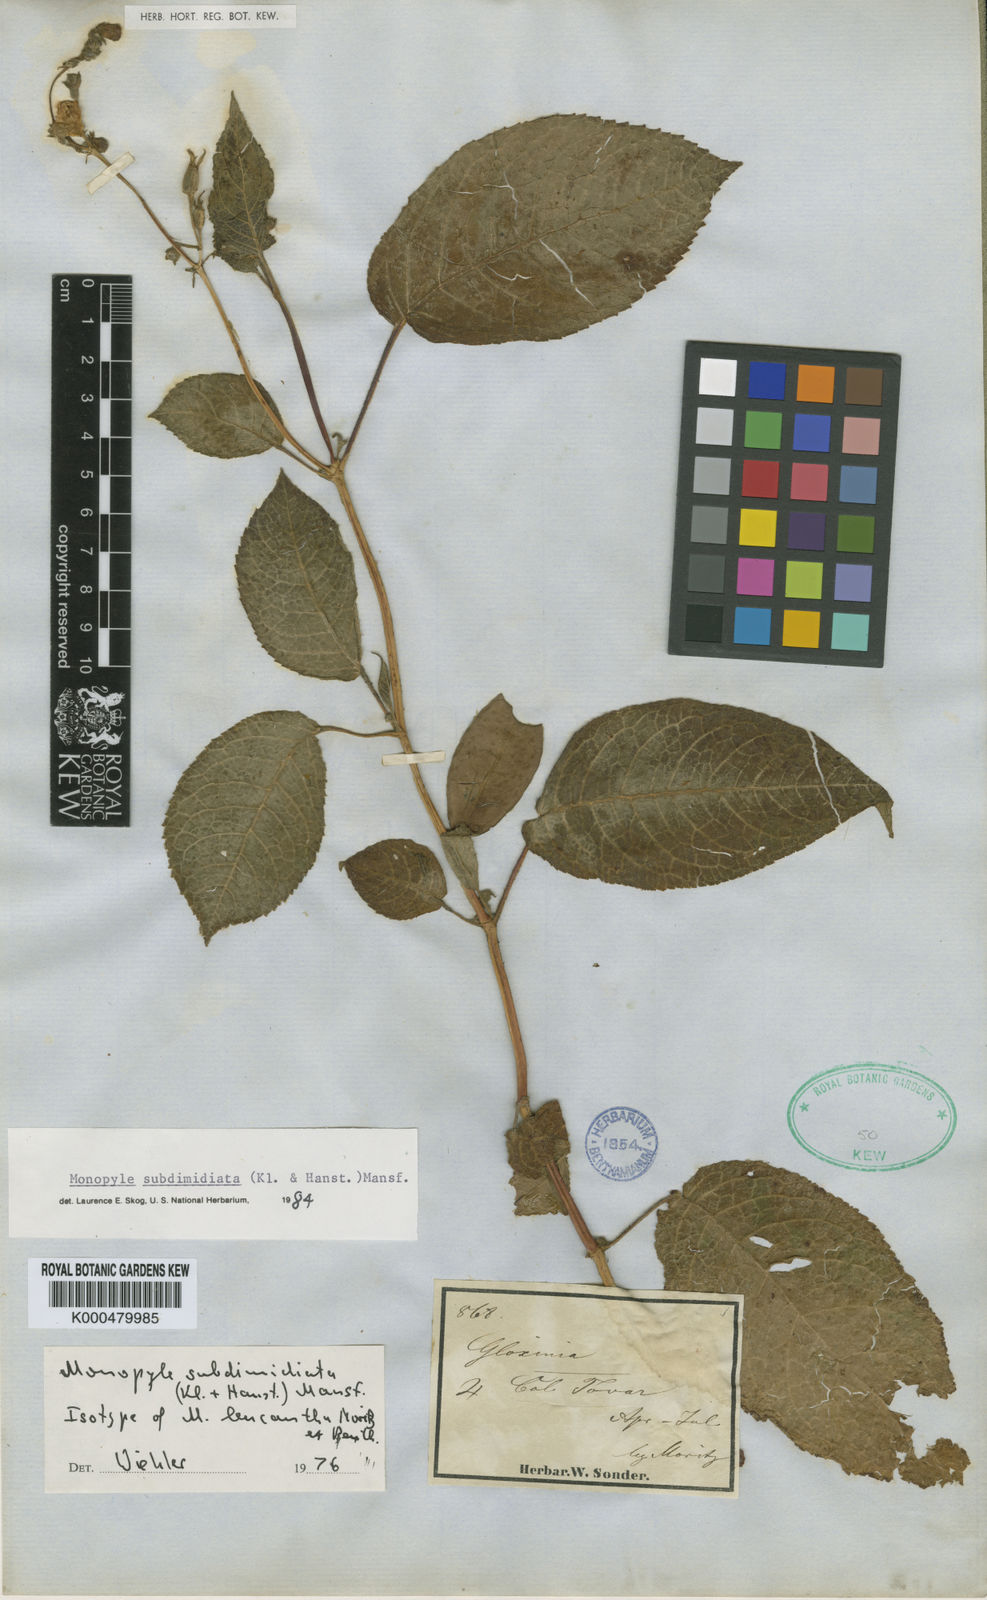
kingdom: Plantae
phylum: Tracheophyta
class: Magnoliopsida
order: Lamiales
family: Gesneriaceae
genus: Monopyle
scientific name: Monopyle subdimidiata
